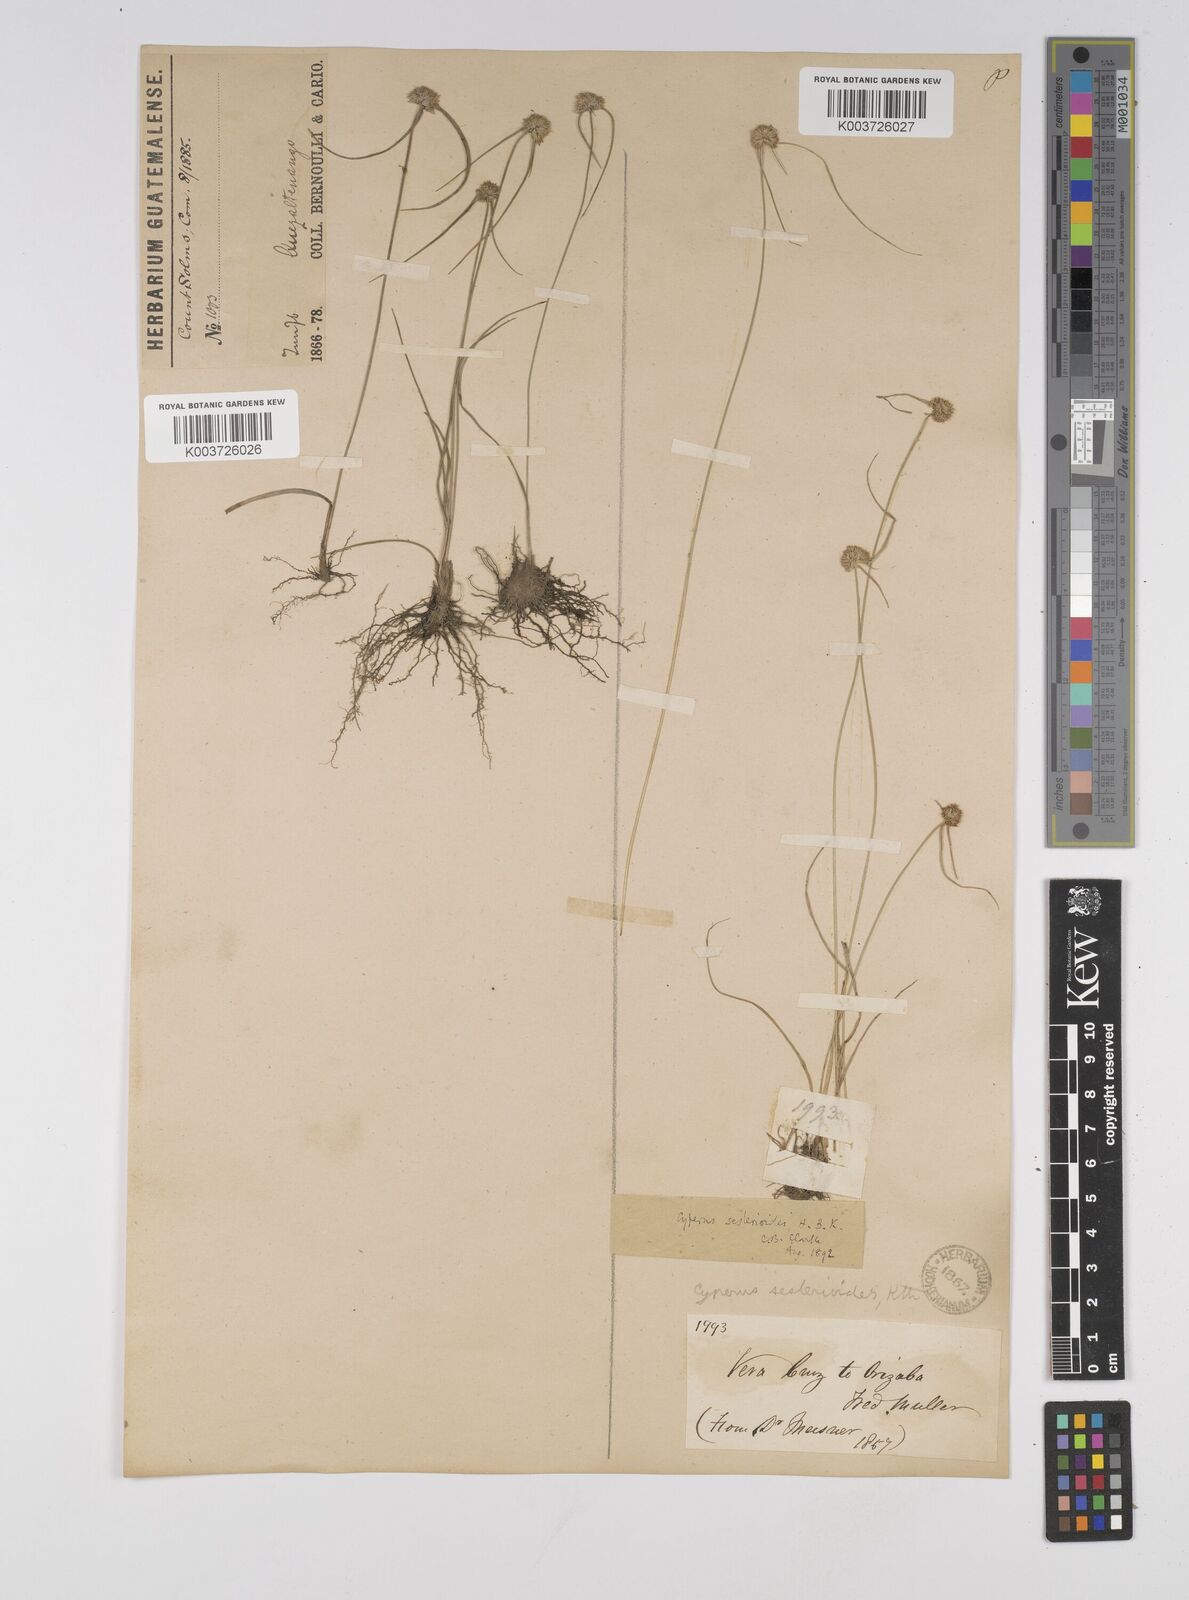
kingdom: Plantae
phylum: Tracheophyta
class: Liliopsida
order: Poales
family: Cyperaceae
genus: Cyperus
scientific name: Cyperus seslerioides
